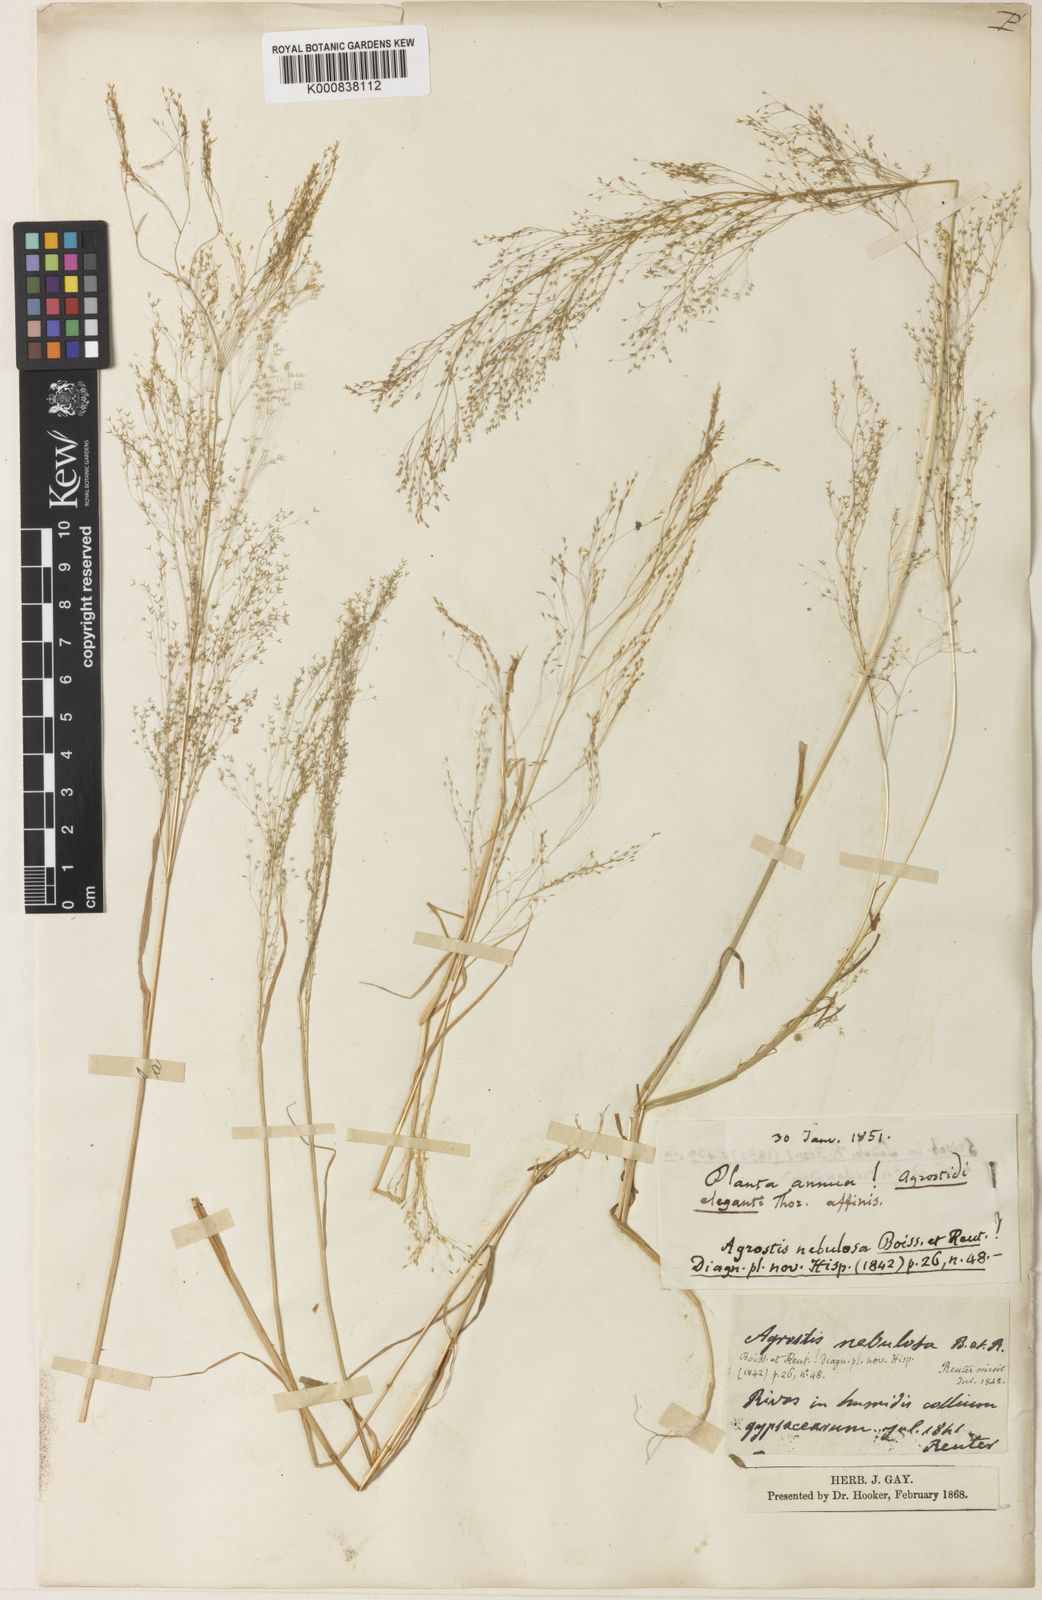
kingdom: Plantae
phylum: Tracheophyta
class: Liliopsida
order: Poales
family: Poaceae
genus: Agrostis
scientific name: Agrostis nebulosa
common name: Cloud grass
